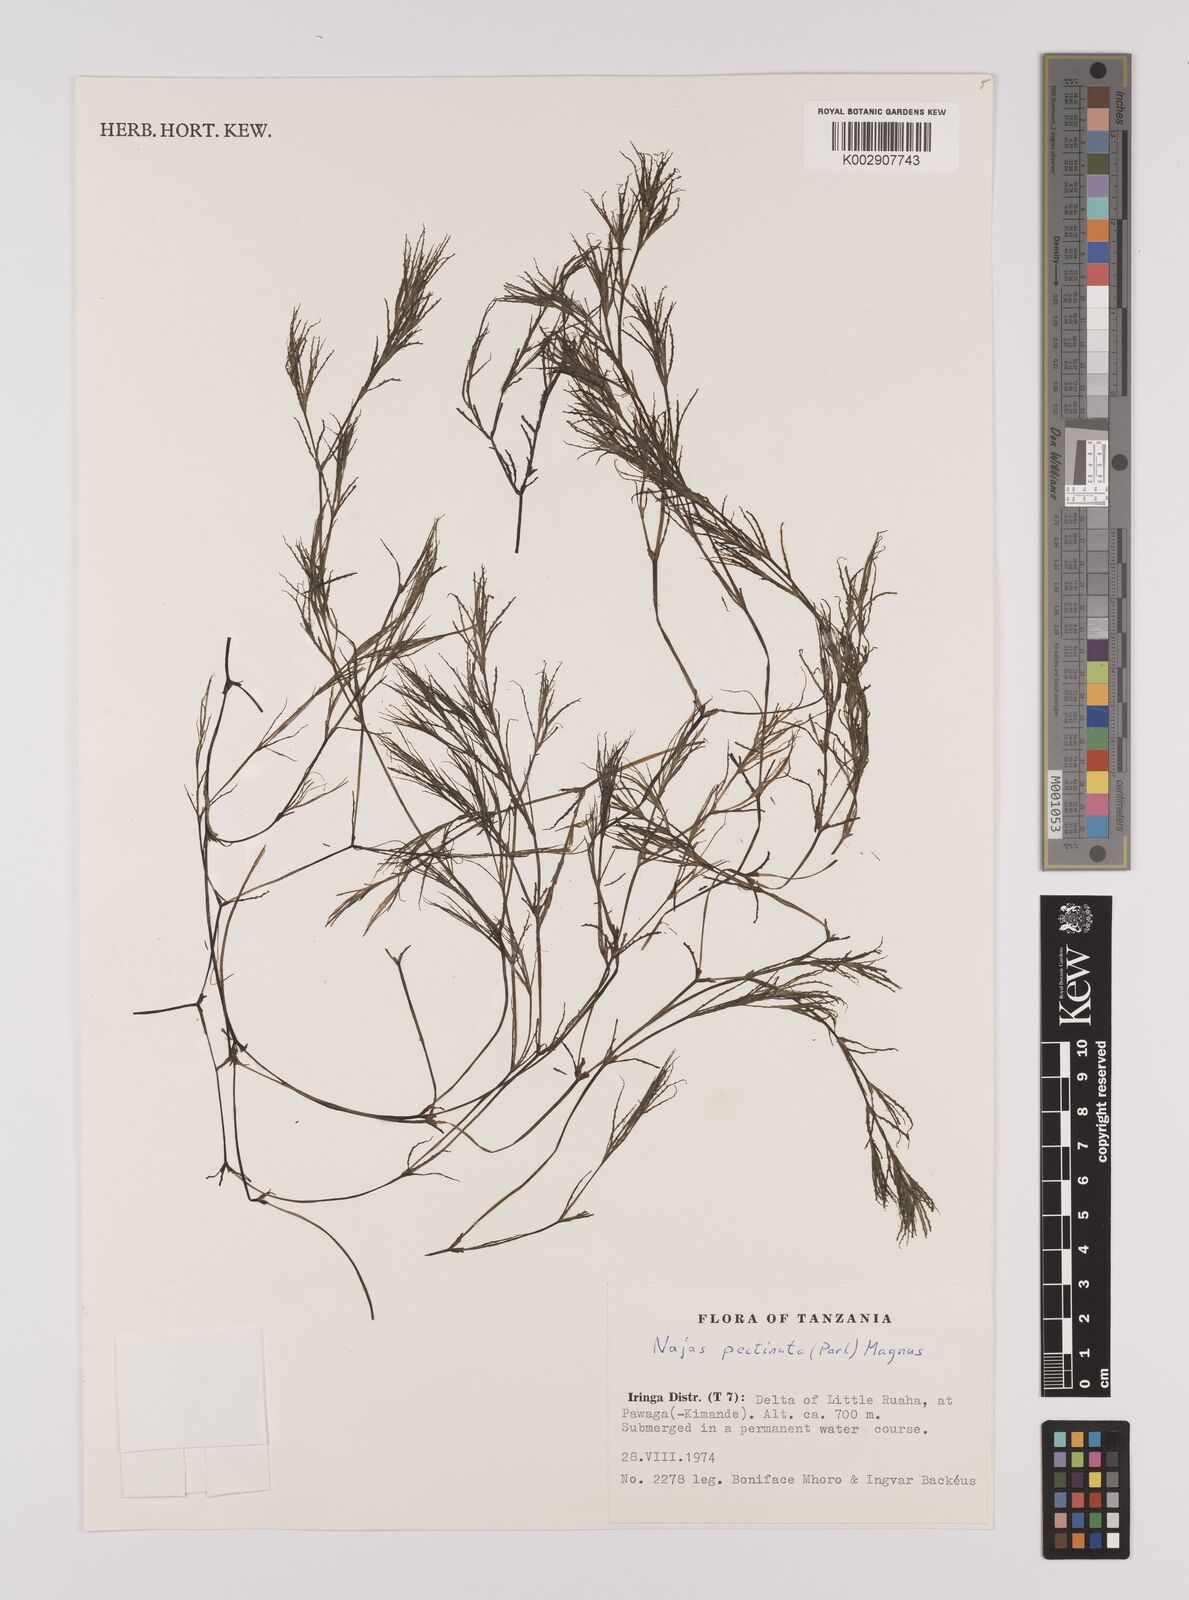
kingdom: Plantae
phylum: Tracheophyta
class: Liliopsida
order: Alismatales
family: Hydrocharitaceae
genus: Najas
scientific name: Najas horrida
